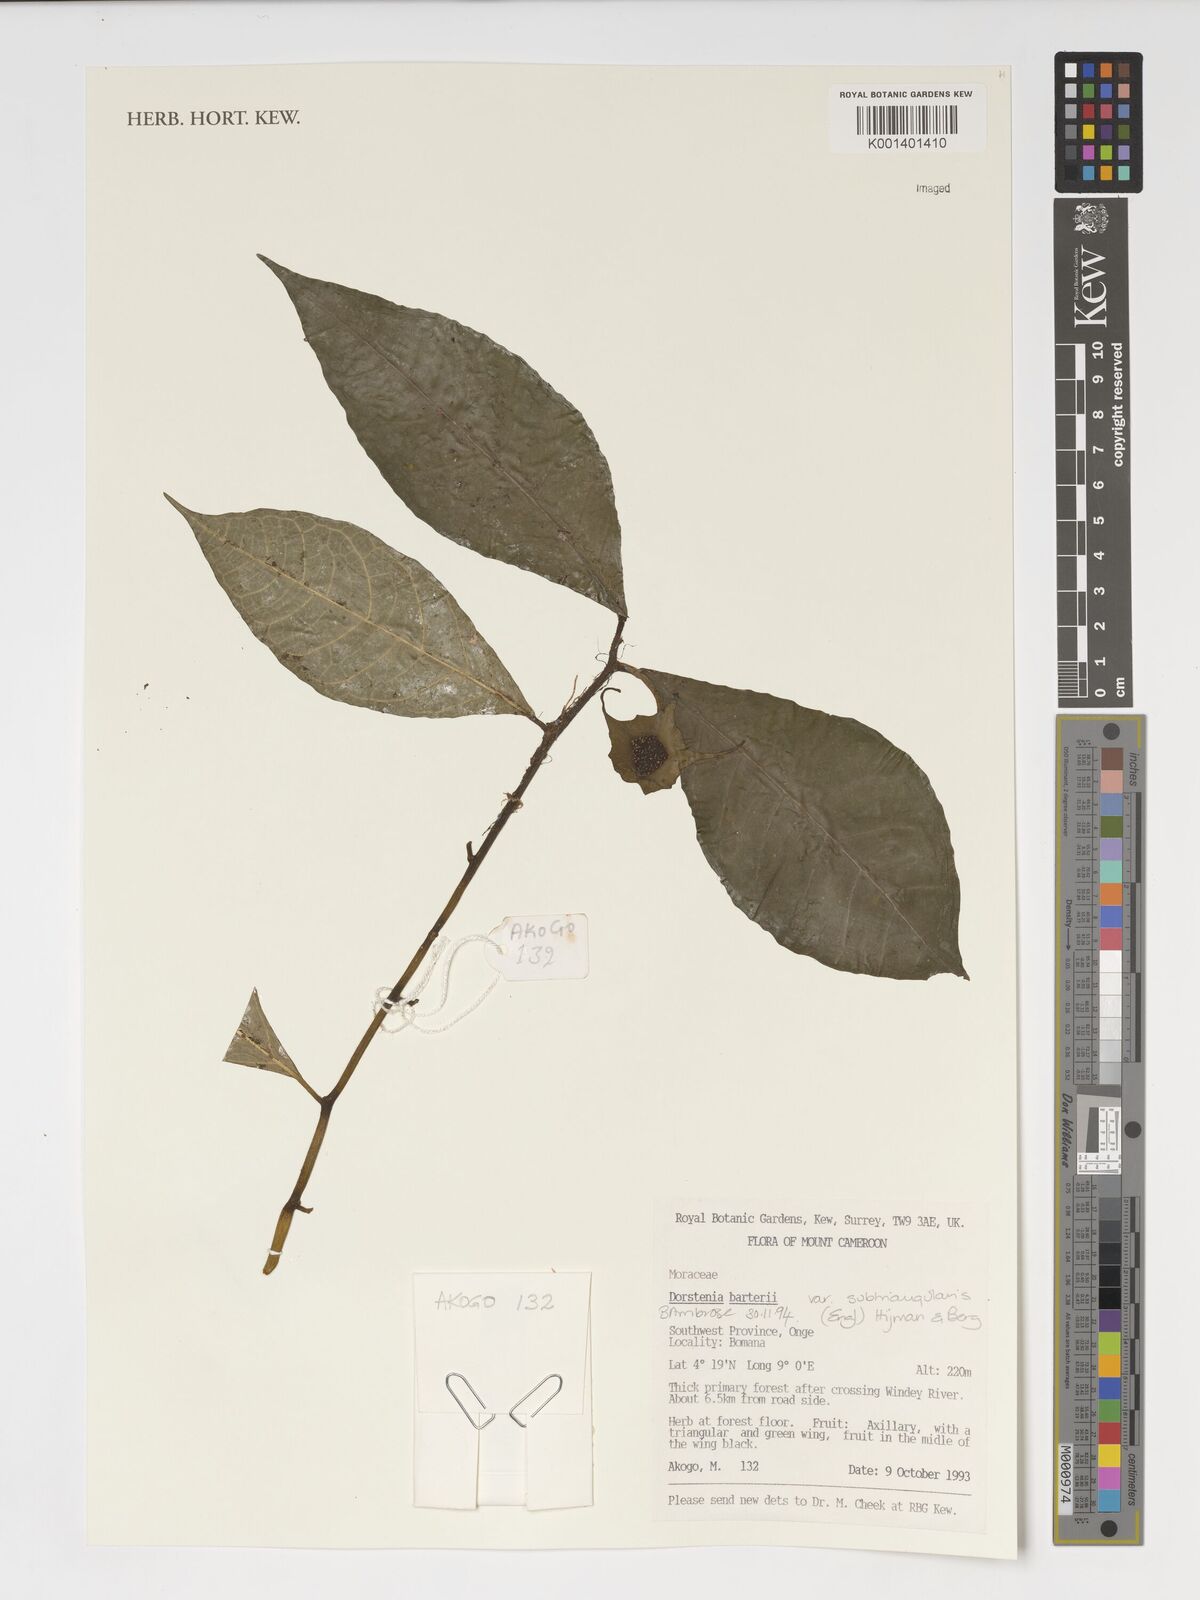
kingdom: Plantae
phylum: Tracheophyta
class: Magnoliopsida
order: Rosales
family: Moraceae
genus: Dorstenia
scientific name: Dorstenia barteri
